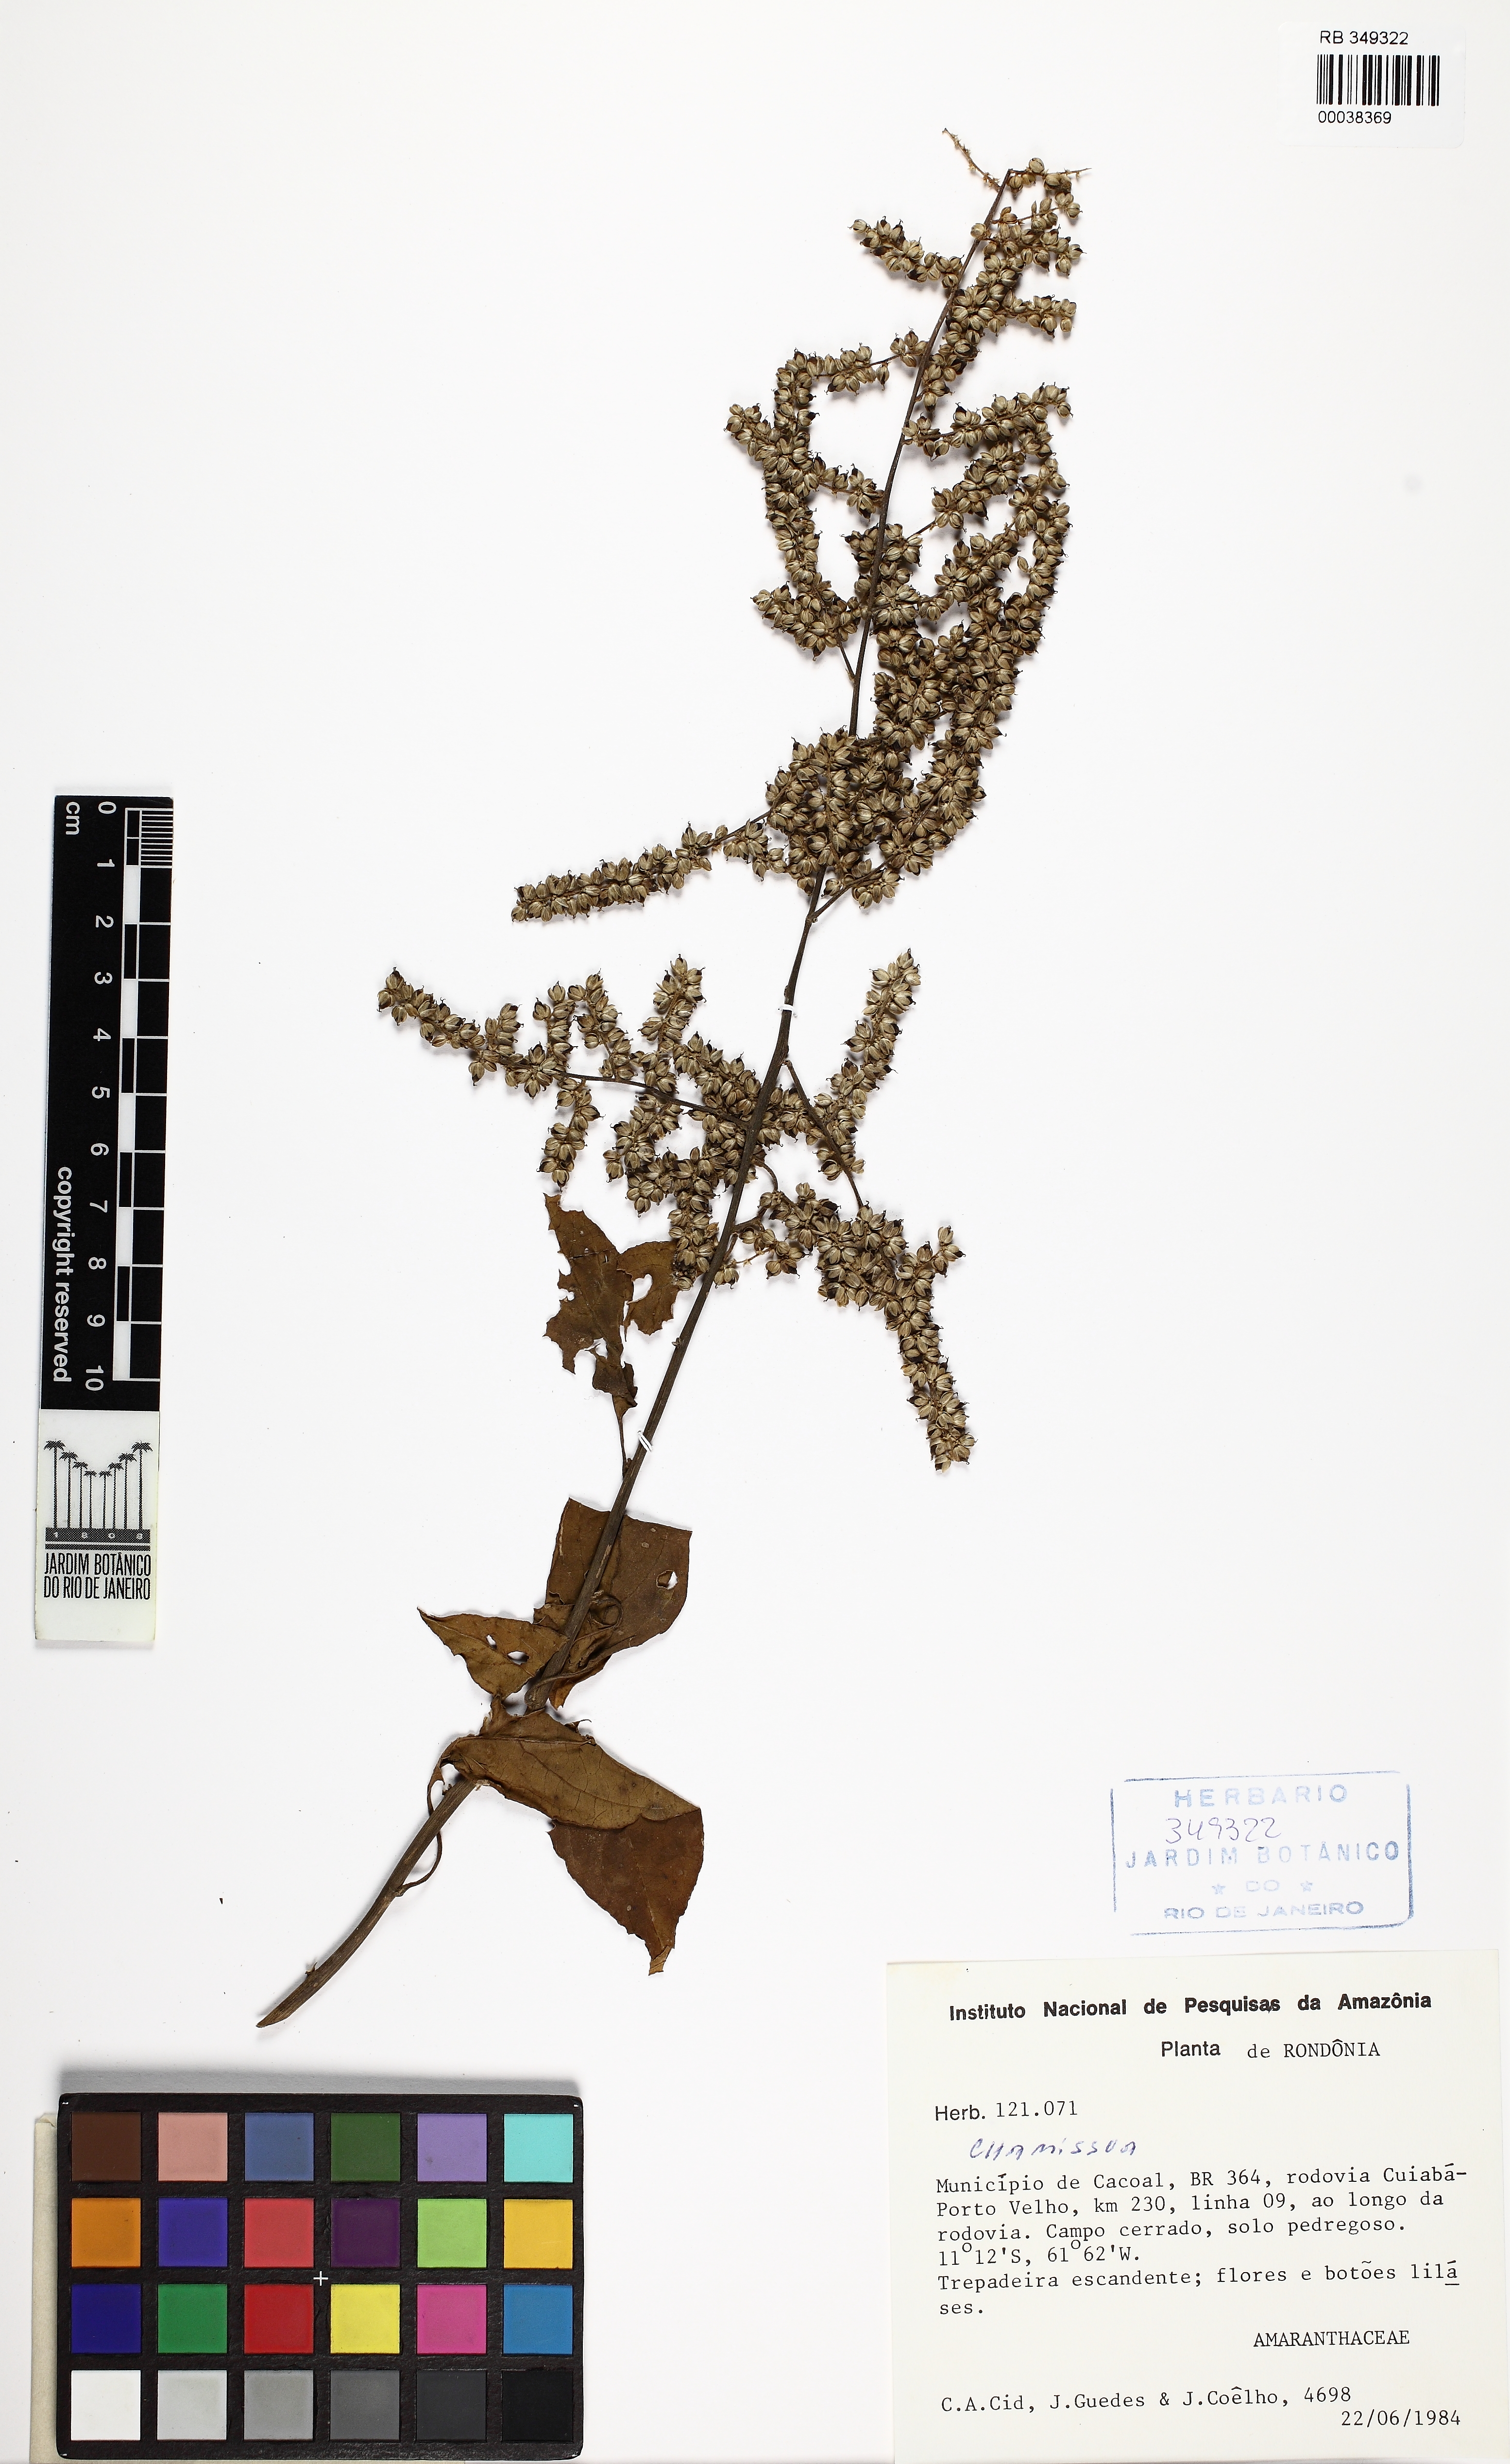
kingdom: Plantae
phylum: Tracheophyta
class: Magnoliopsida
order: Caryophyllales
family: Amaranthaceae
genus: Chamissoa
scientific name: Chamissoa
